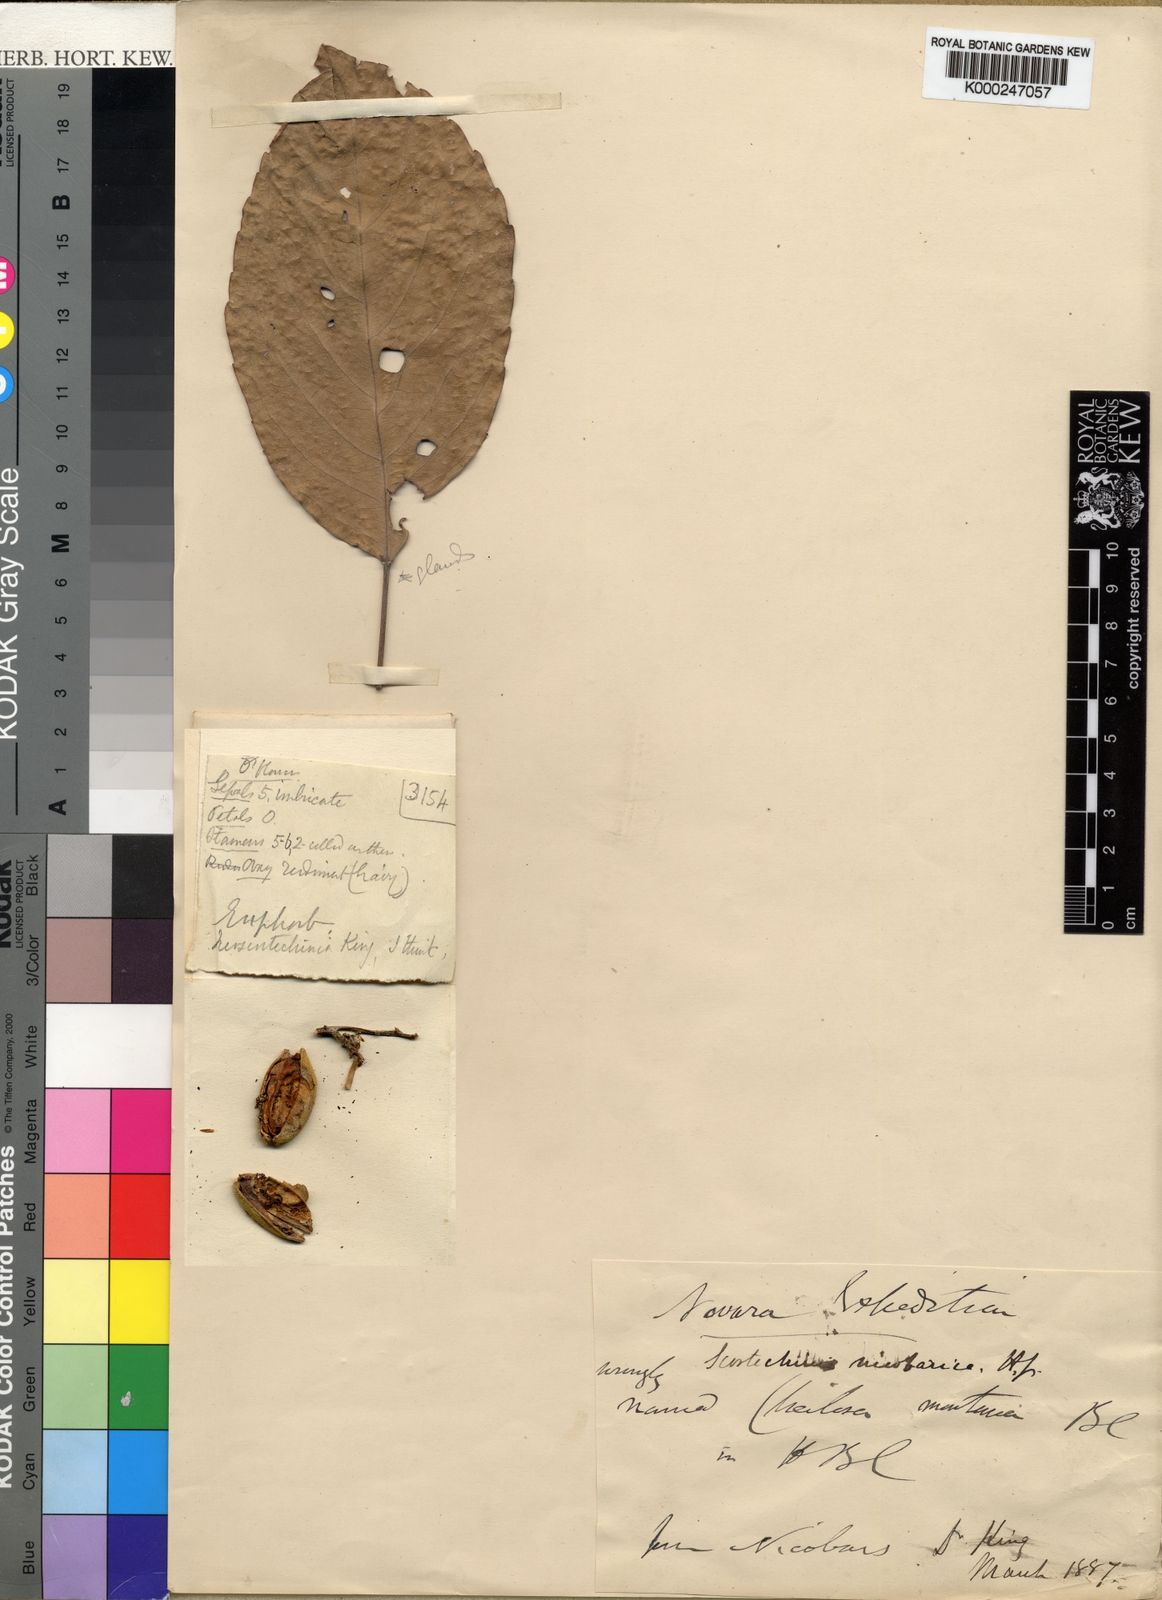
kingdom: Plantae
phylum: Tracheophyta
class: Magnoliopsida
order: Malpighiales
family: Euphorbiaceae
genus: Neoscortechinia
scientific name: Neoscortechinia nicobarica
